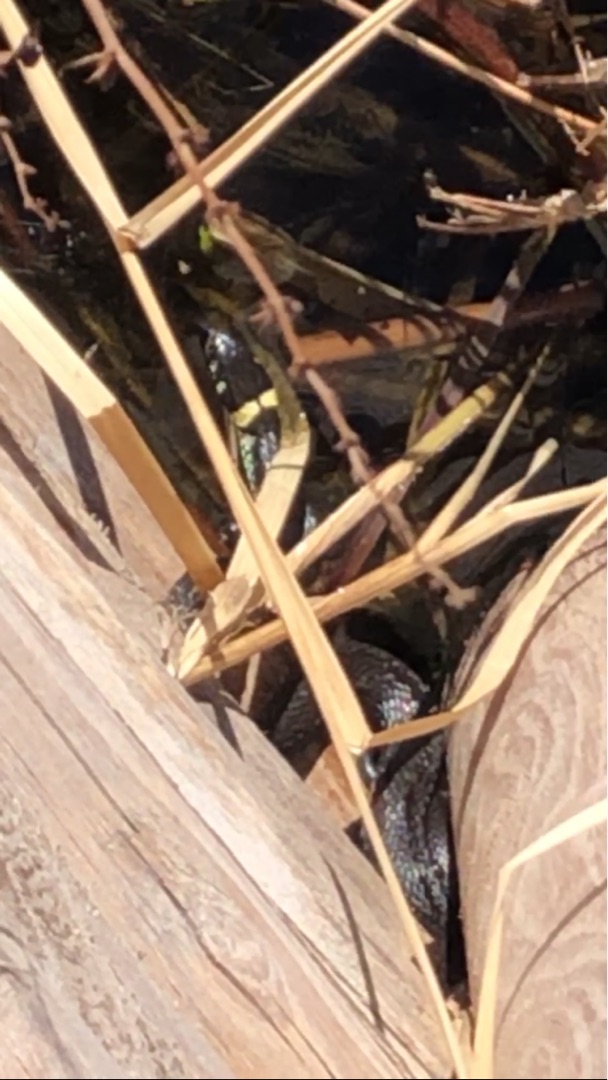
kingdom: Animalia
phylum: Chordata
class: Squamata
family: Colubridae
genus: Natrix
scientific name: Natrix natrix
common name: Snog
